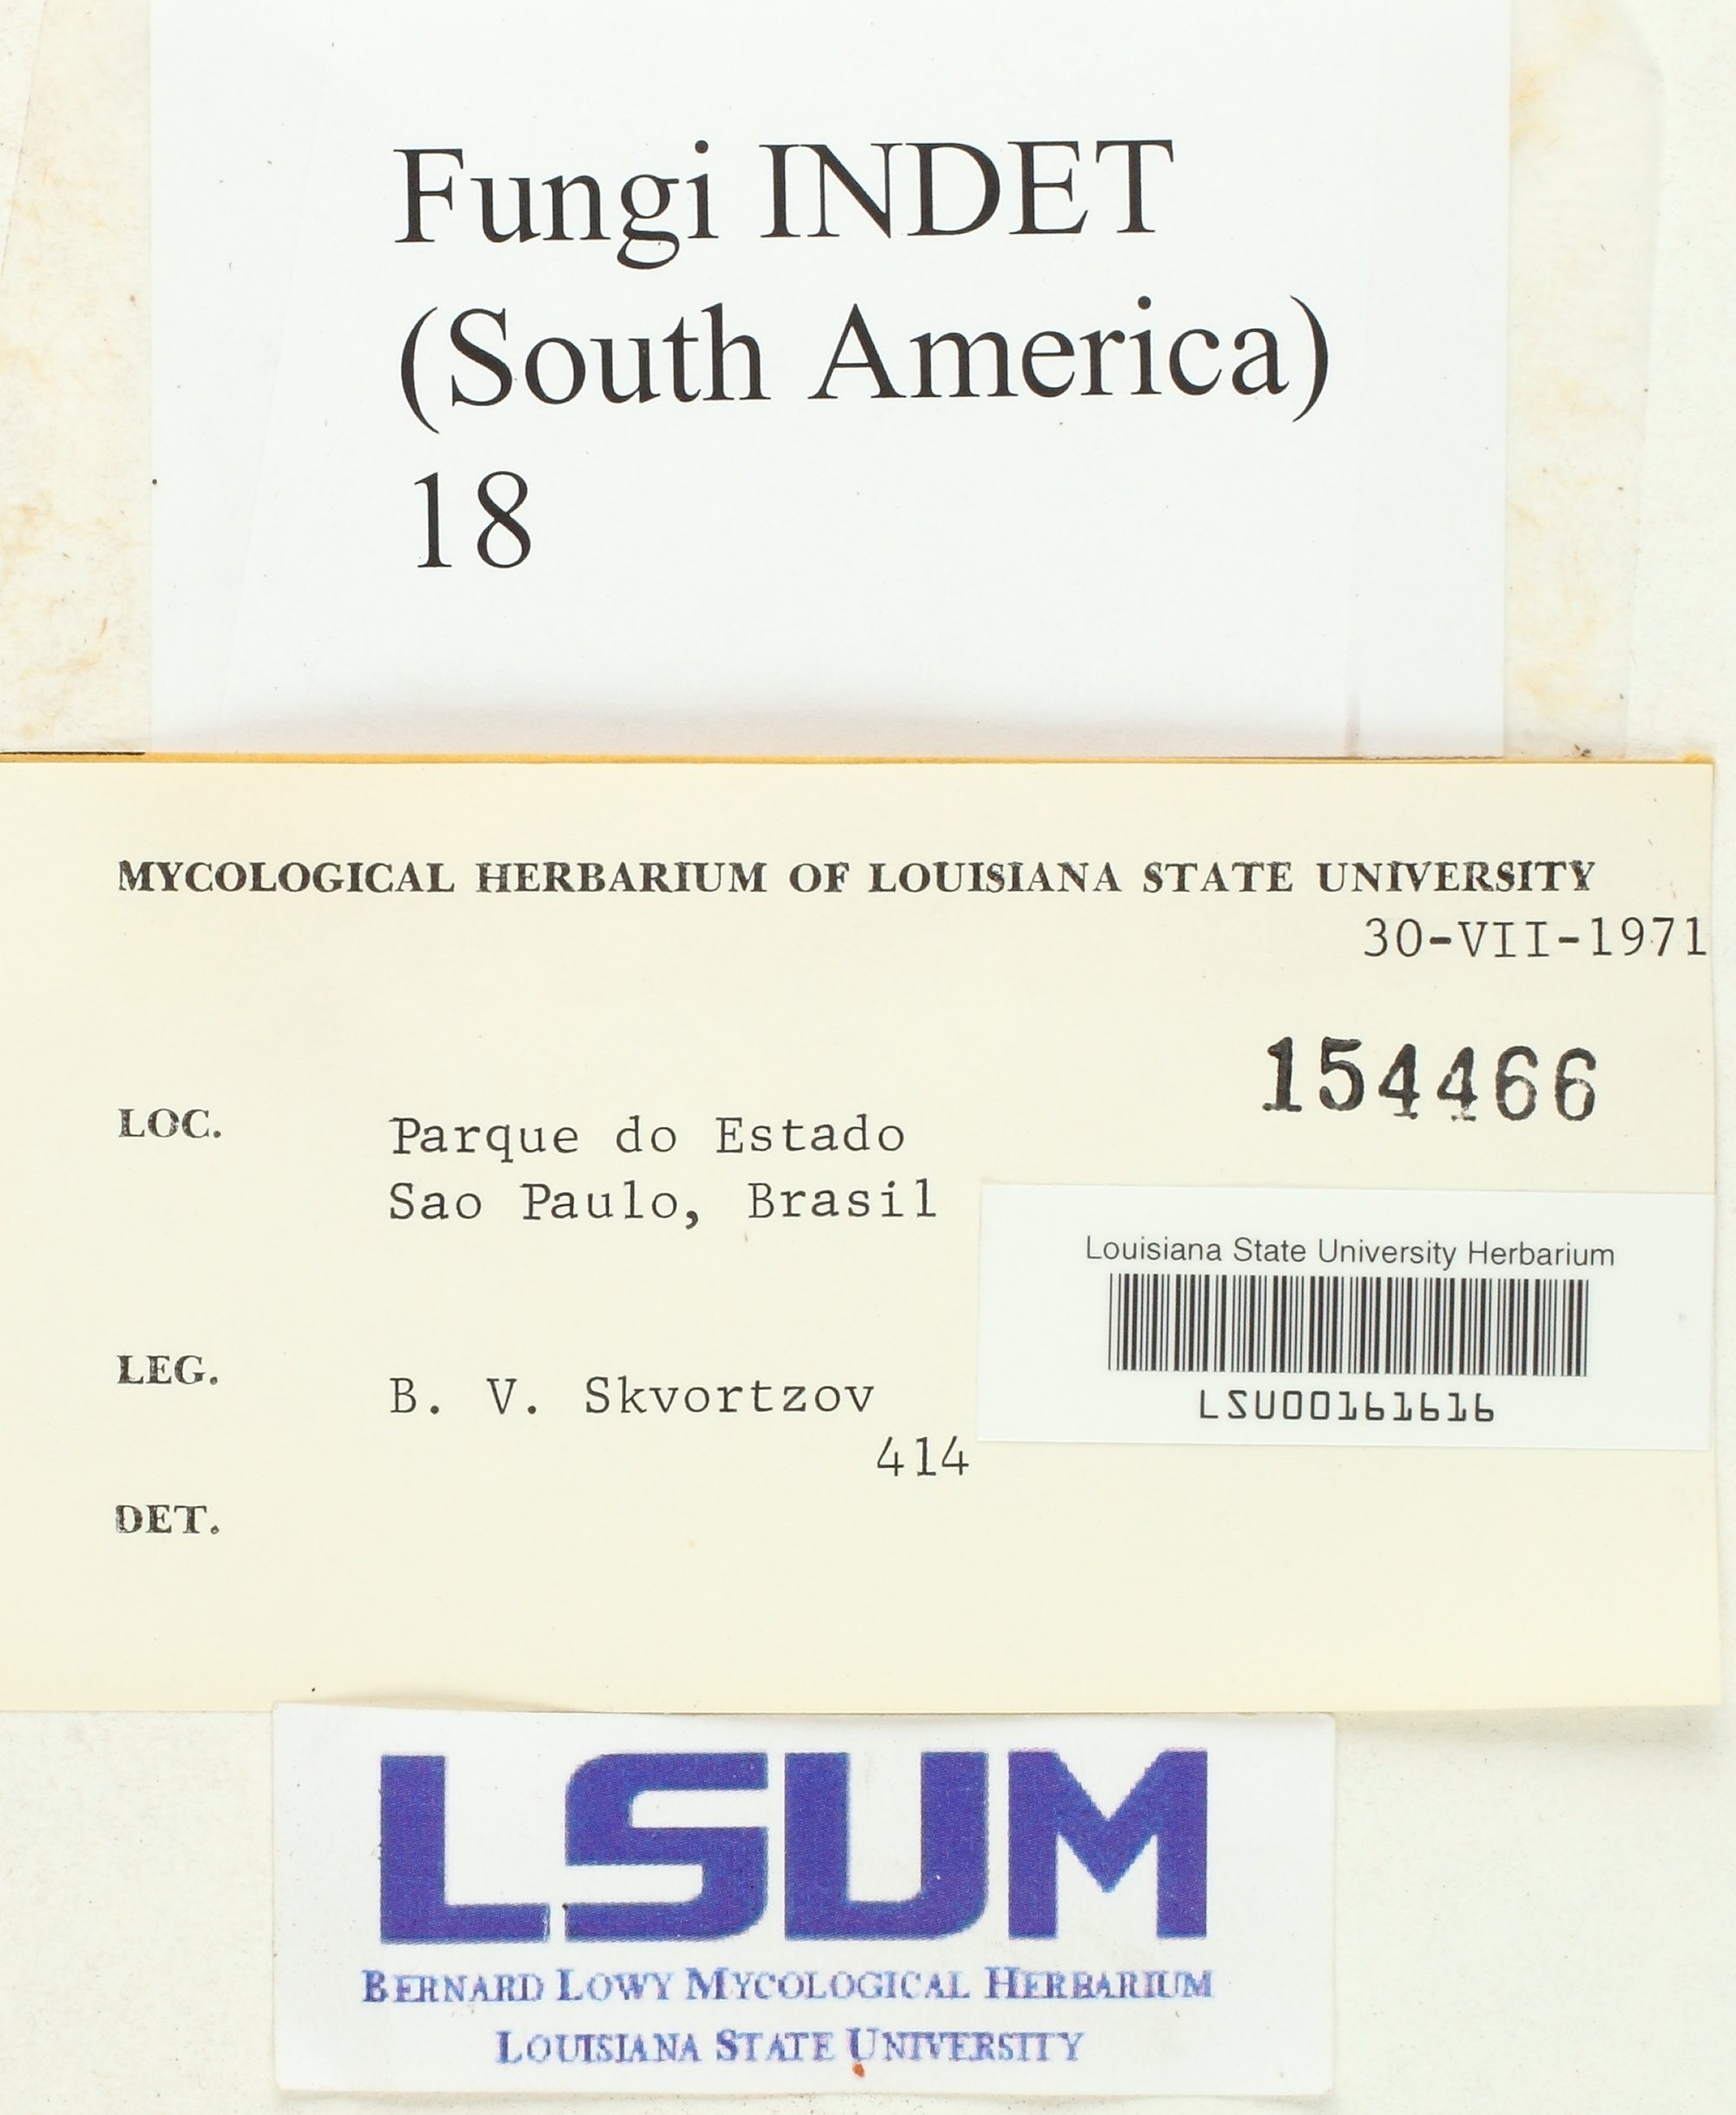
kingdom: Fungi
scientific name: Fungi
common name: Fungi
